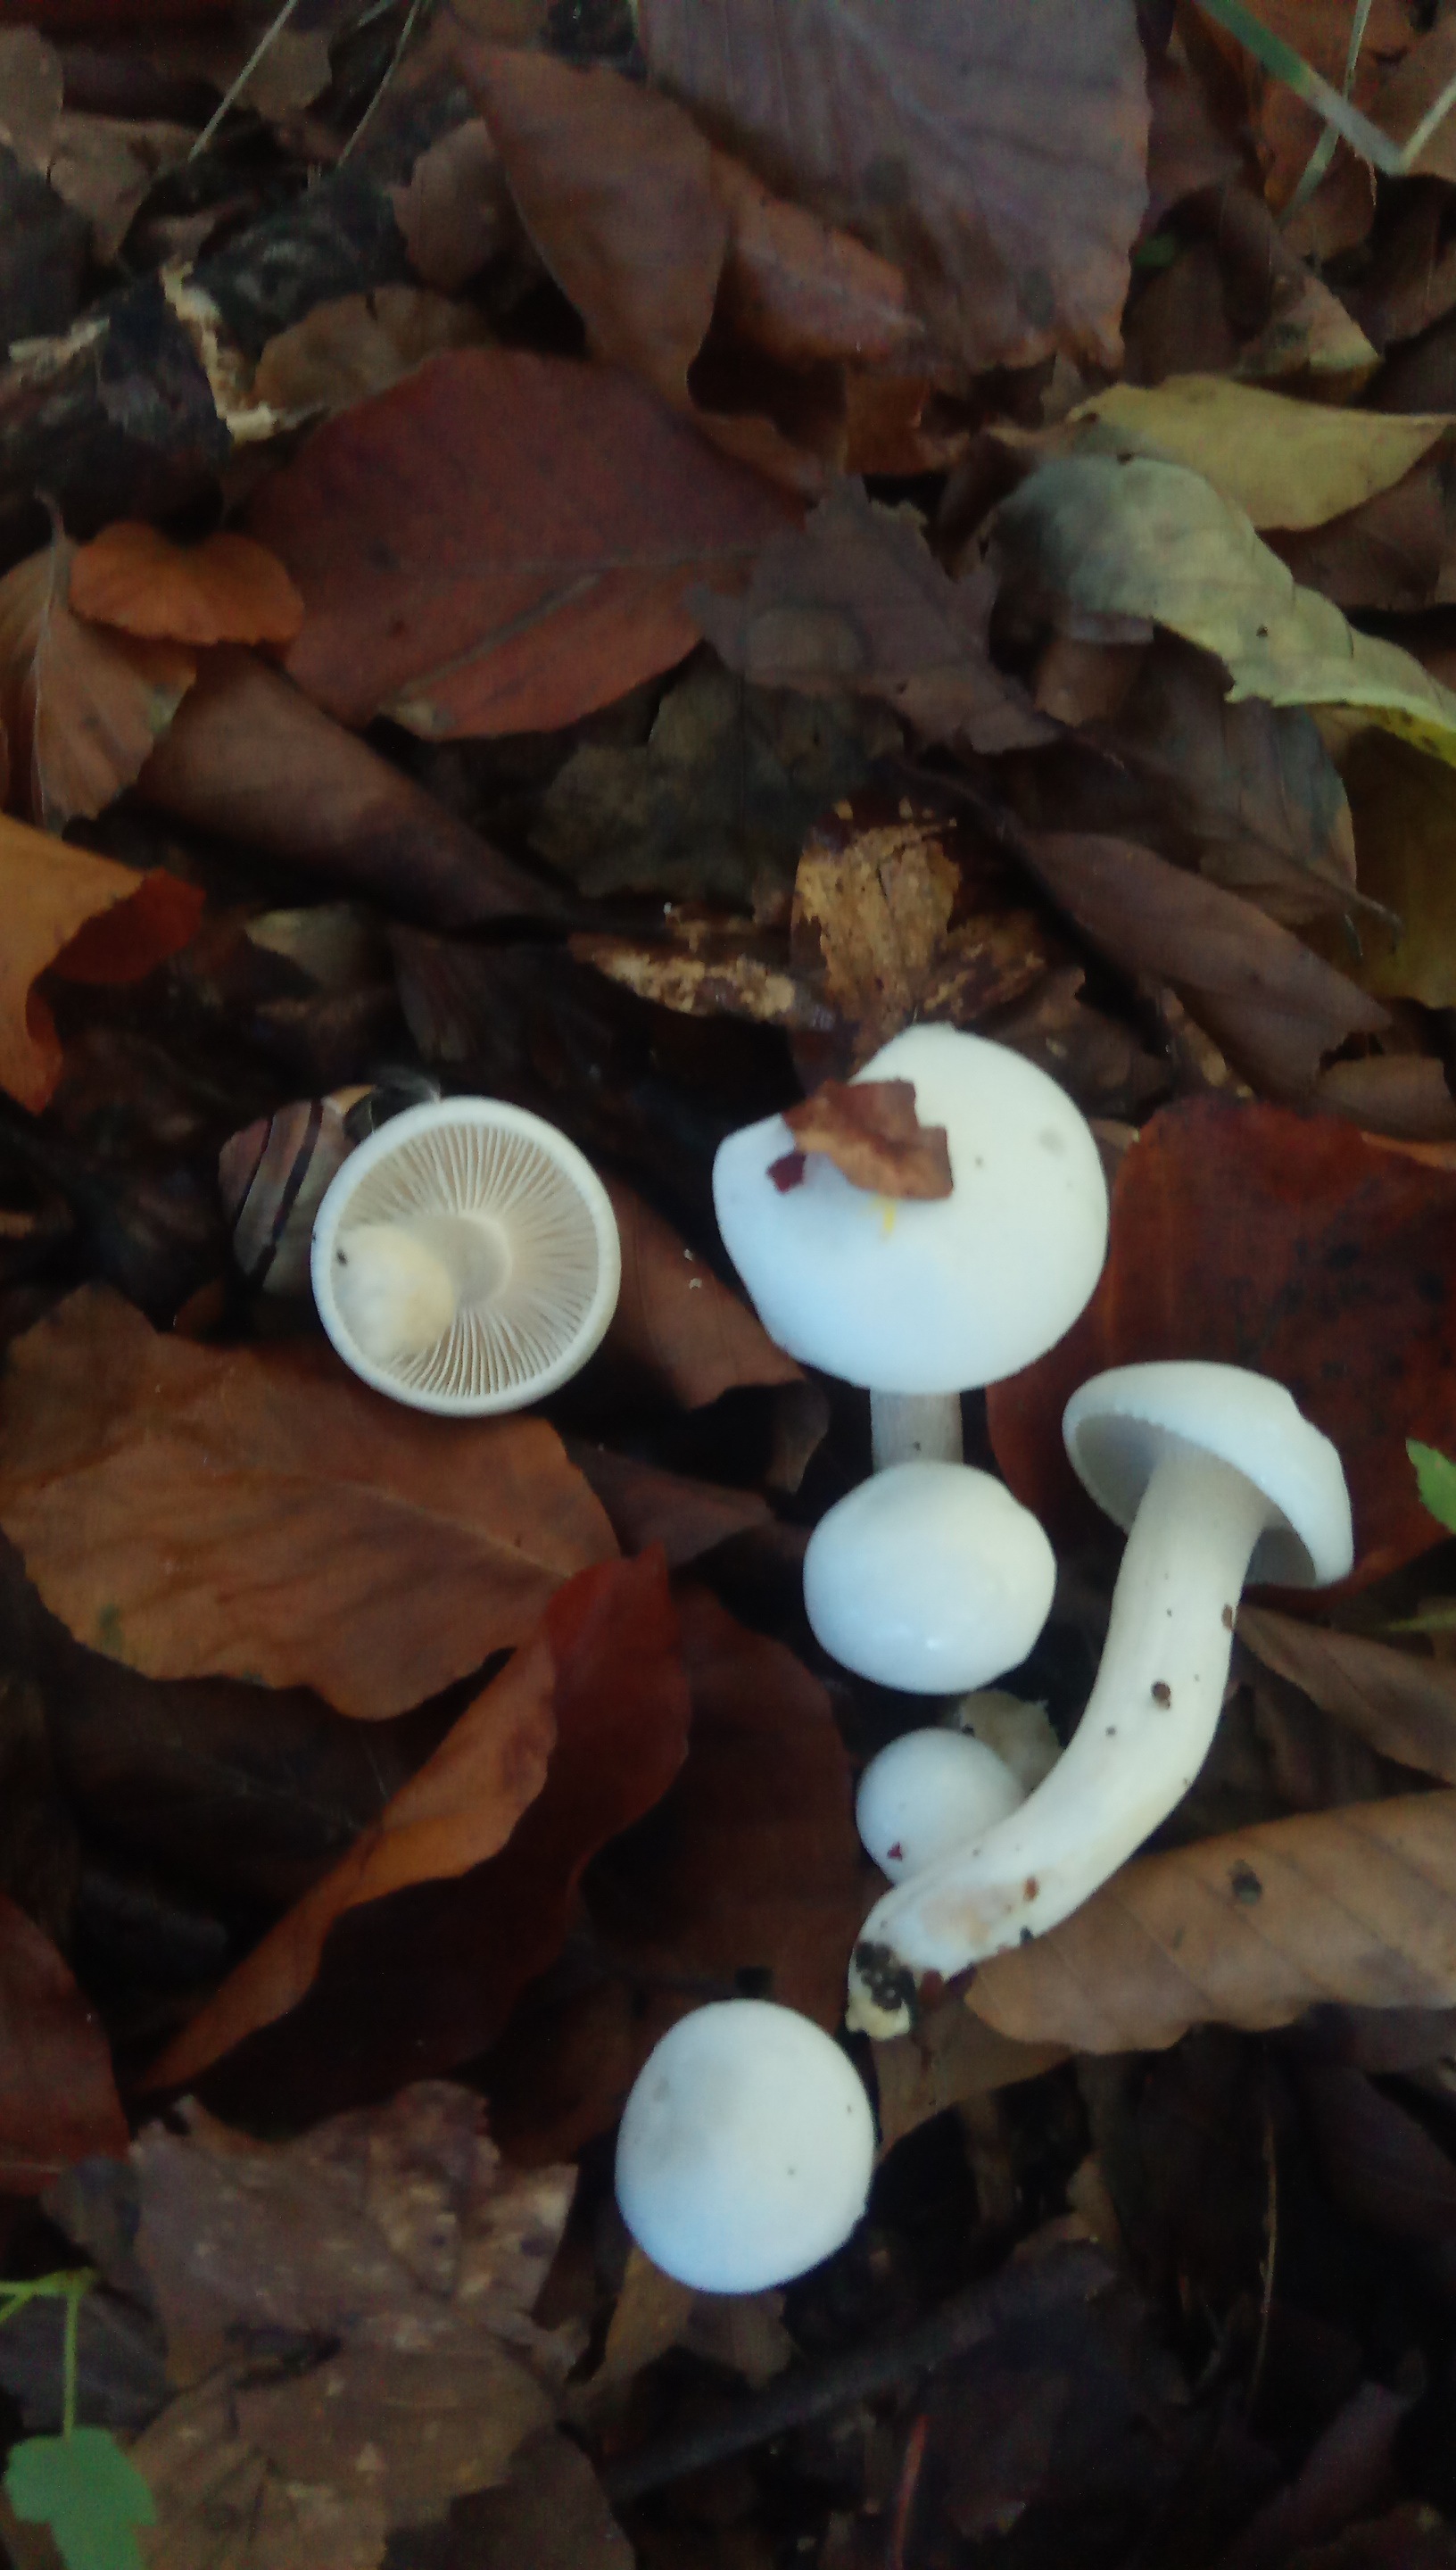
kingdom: Fungi
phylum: Basidiomycota
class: Agaricomycetes
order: Agaricales
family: Hygrophoraceae
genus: Hygrophorus
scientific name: Hygrophorus
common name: sneglehat
